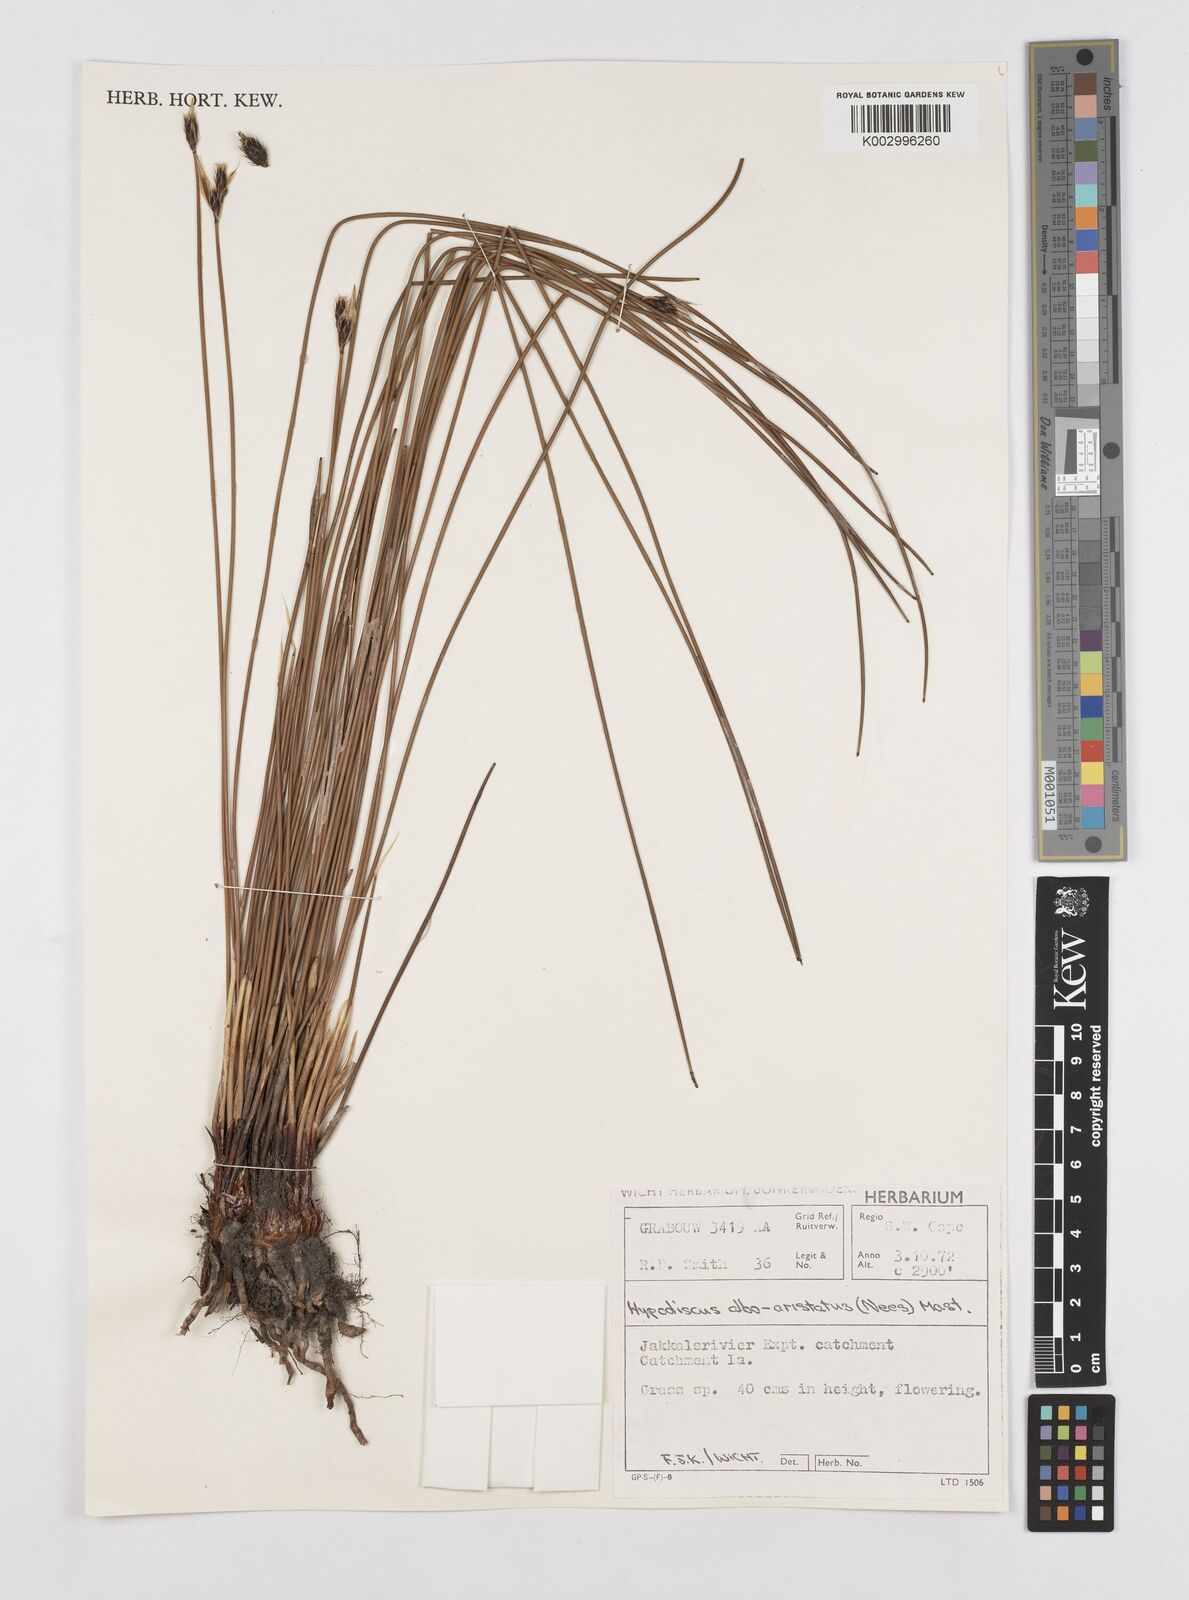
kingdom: Plantae
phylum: Tracheophyta
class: Liliopsida
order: Poales
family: Restionaceae
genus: Hypodiscus
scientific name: Hypodiscus alboaristatus
